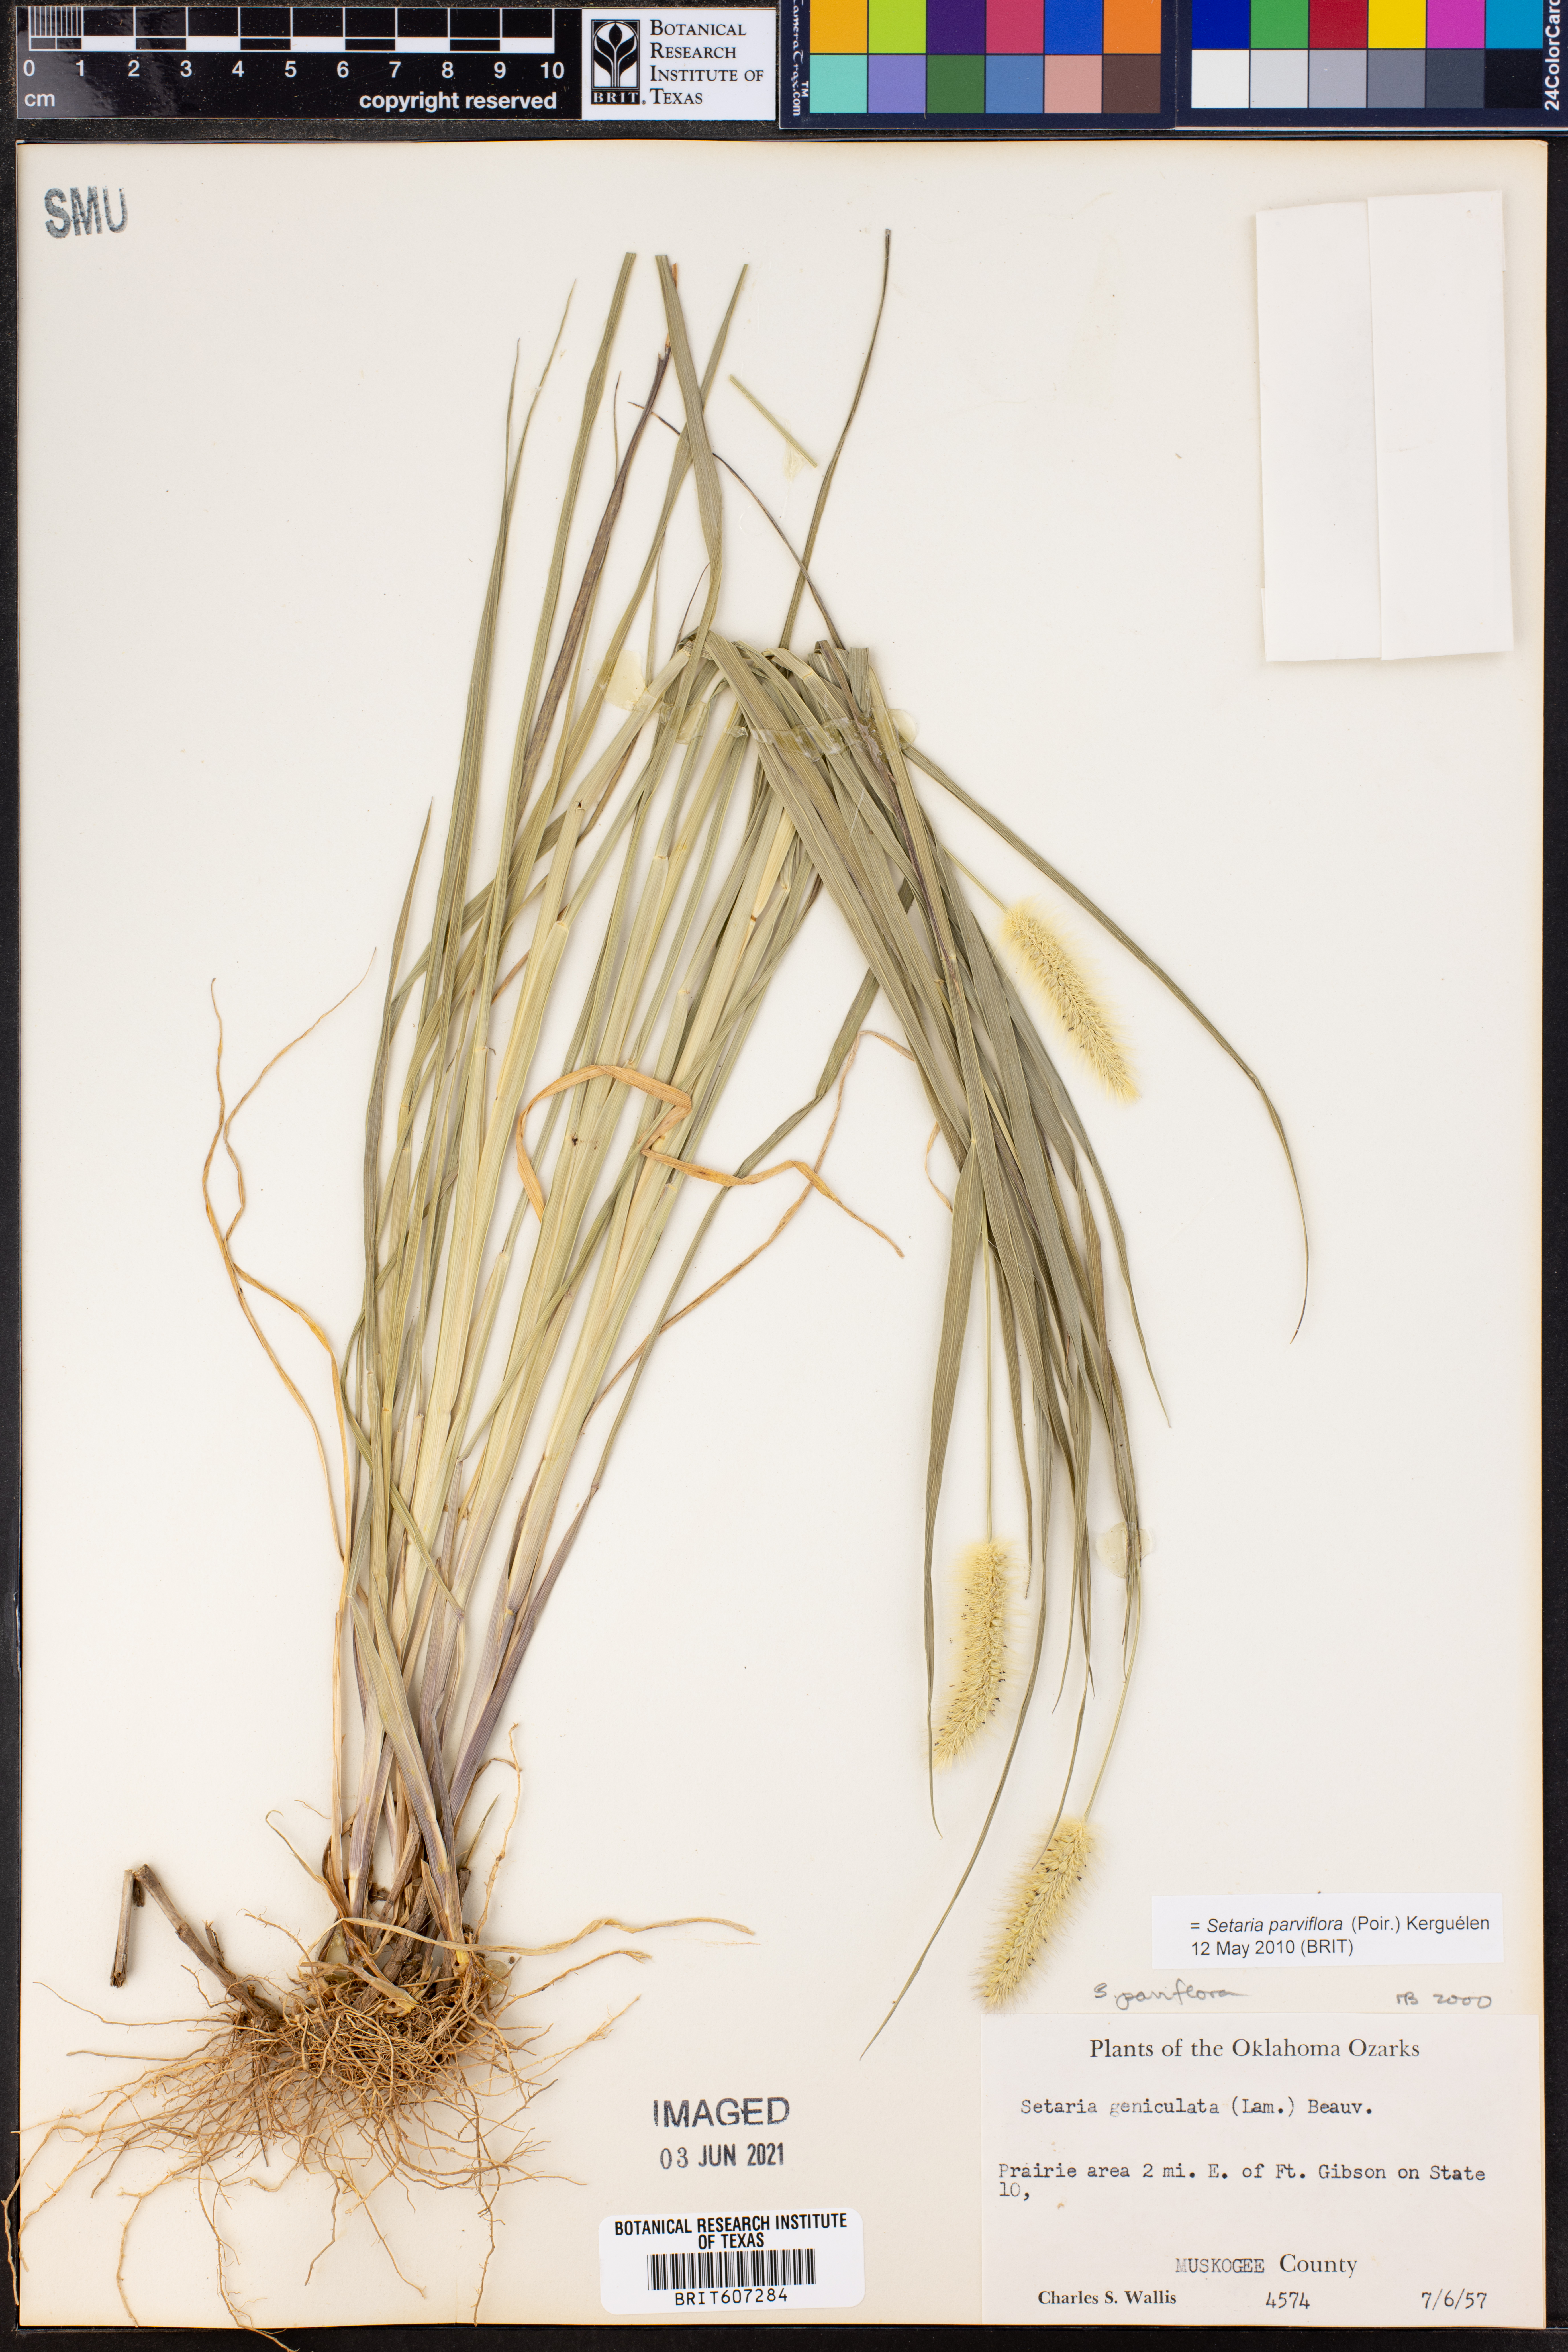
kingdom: Plantae
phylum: Tracheophyta
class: Liliopsida
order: Poales
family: Poaceae
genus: Setaria
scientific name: Setaria parviflora
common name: Knotroot bristle-grass
